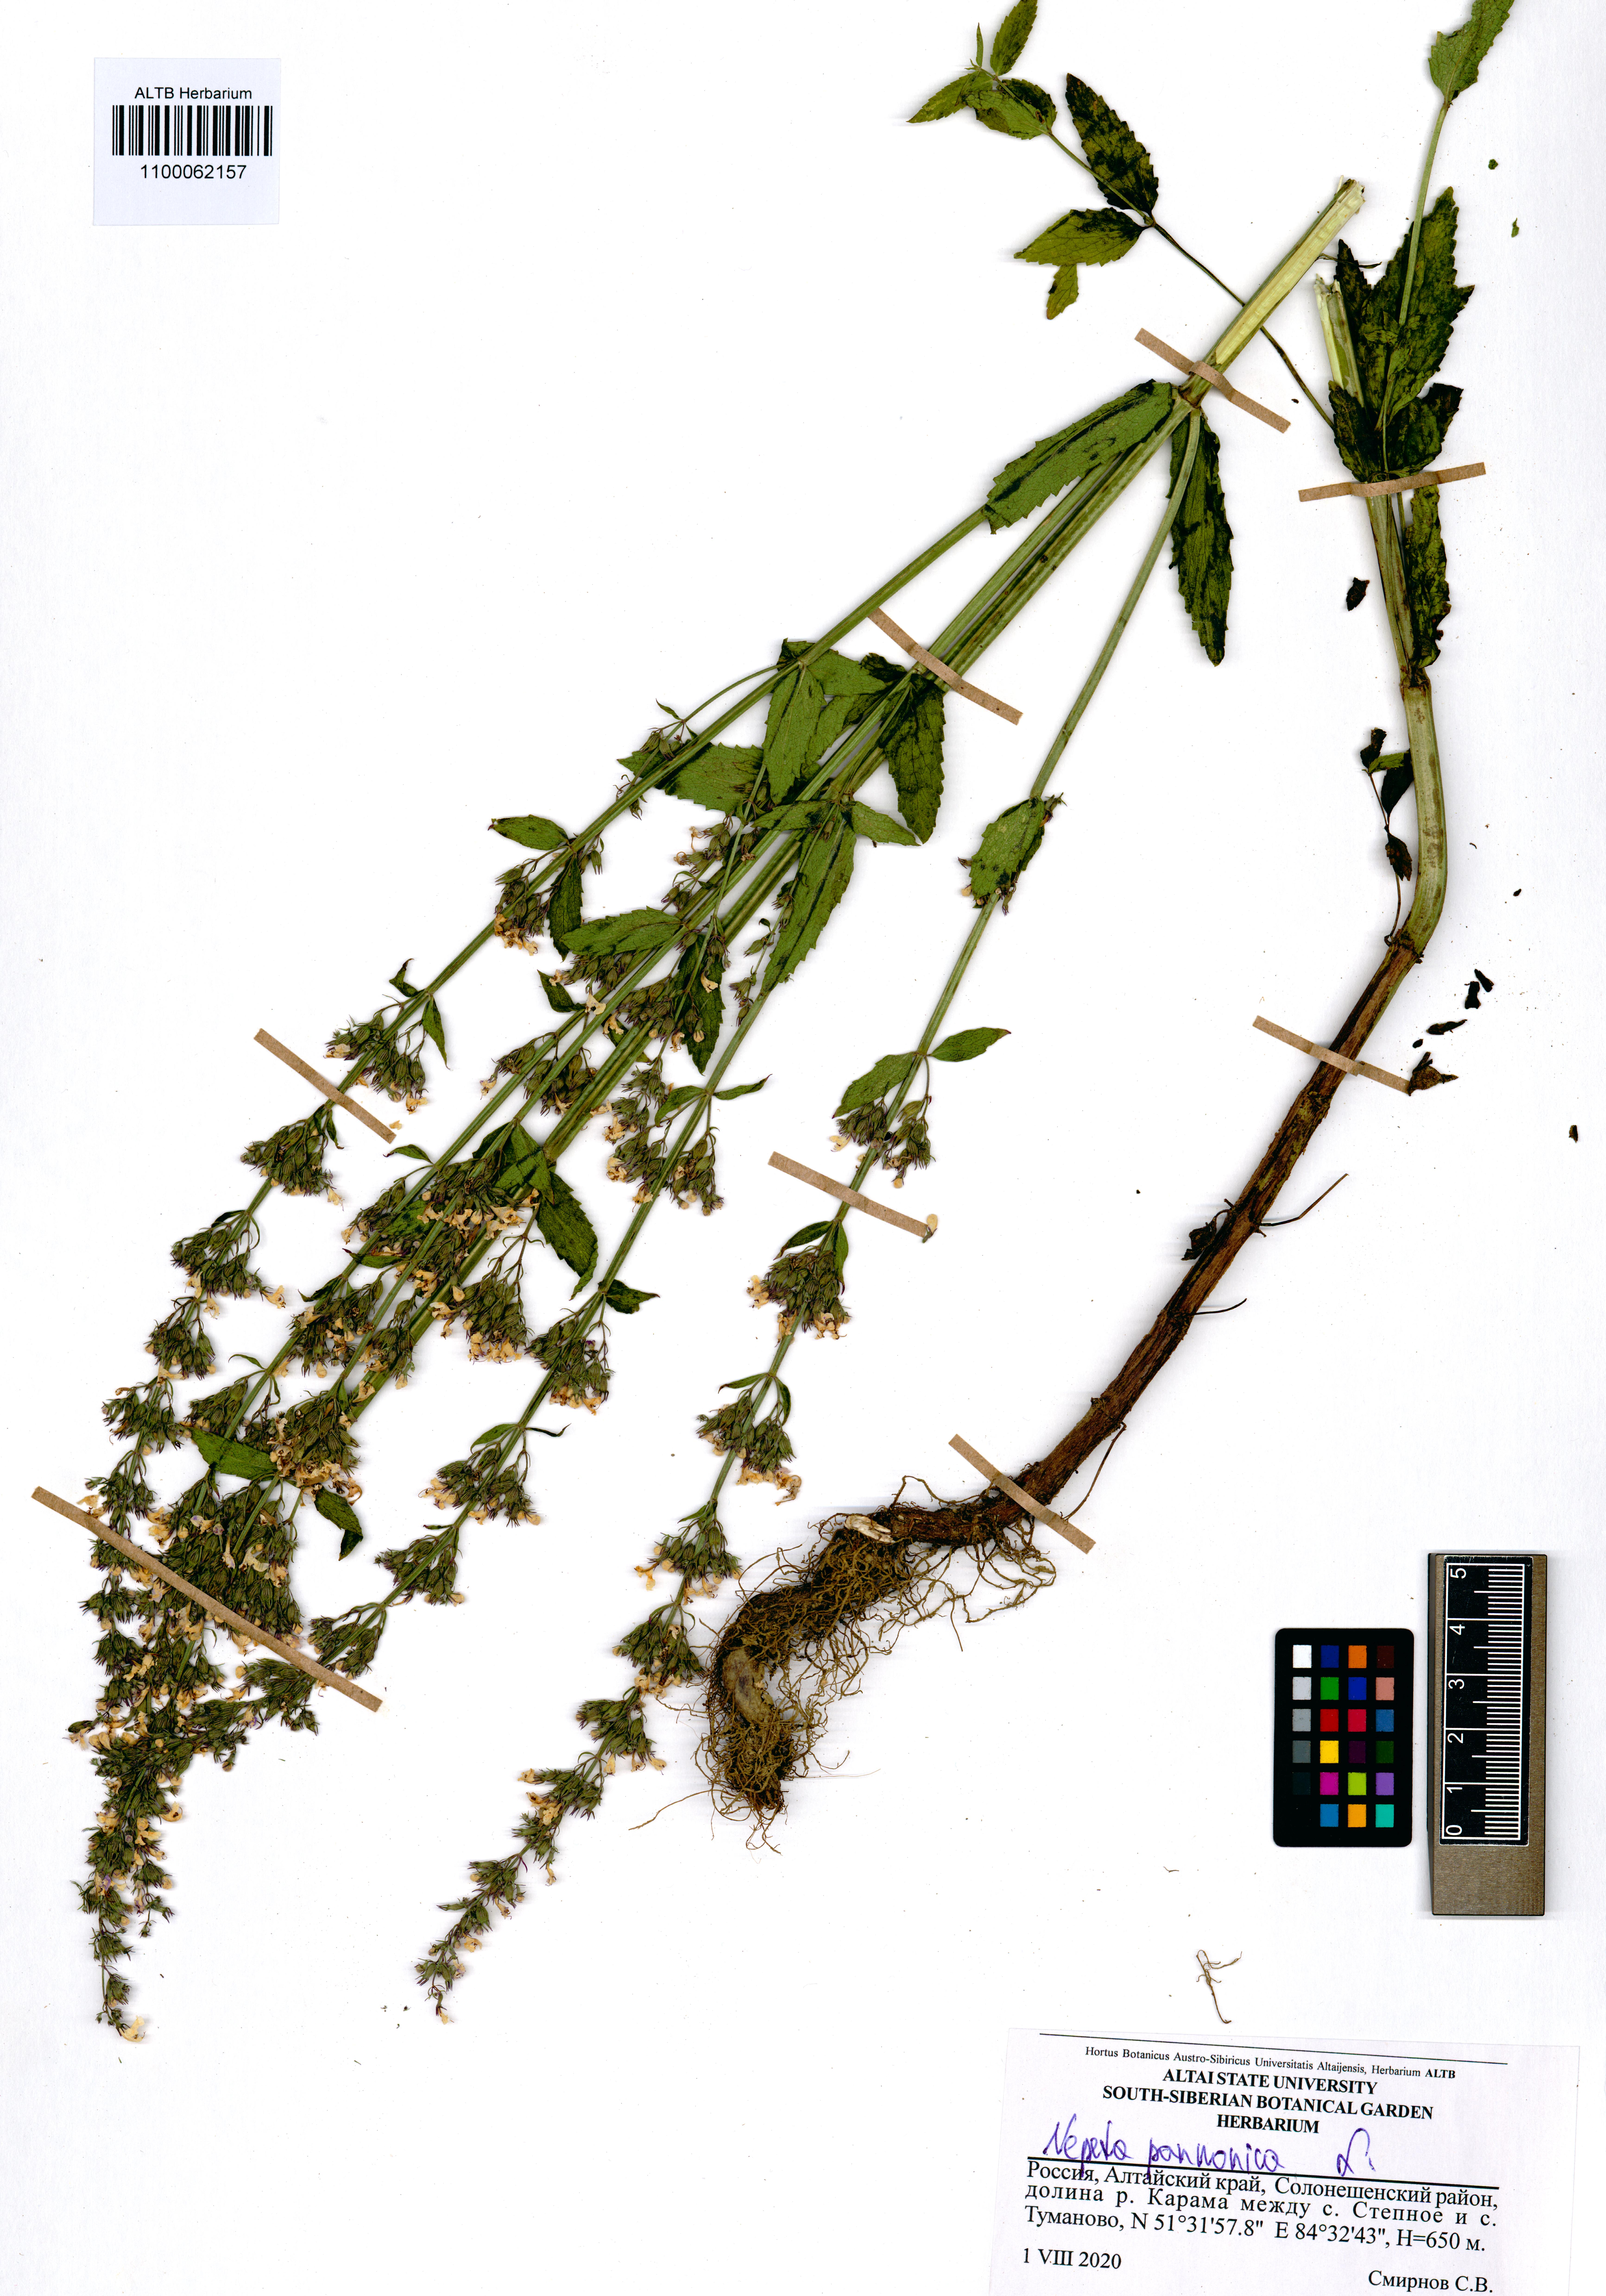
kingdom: Plantae
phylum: Tracheophyta
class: Magnoliopsida
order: Lamiales
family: Lamiaceae
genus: Nepeta
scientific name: Nepeta nuda
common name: Hairless catmint
